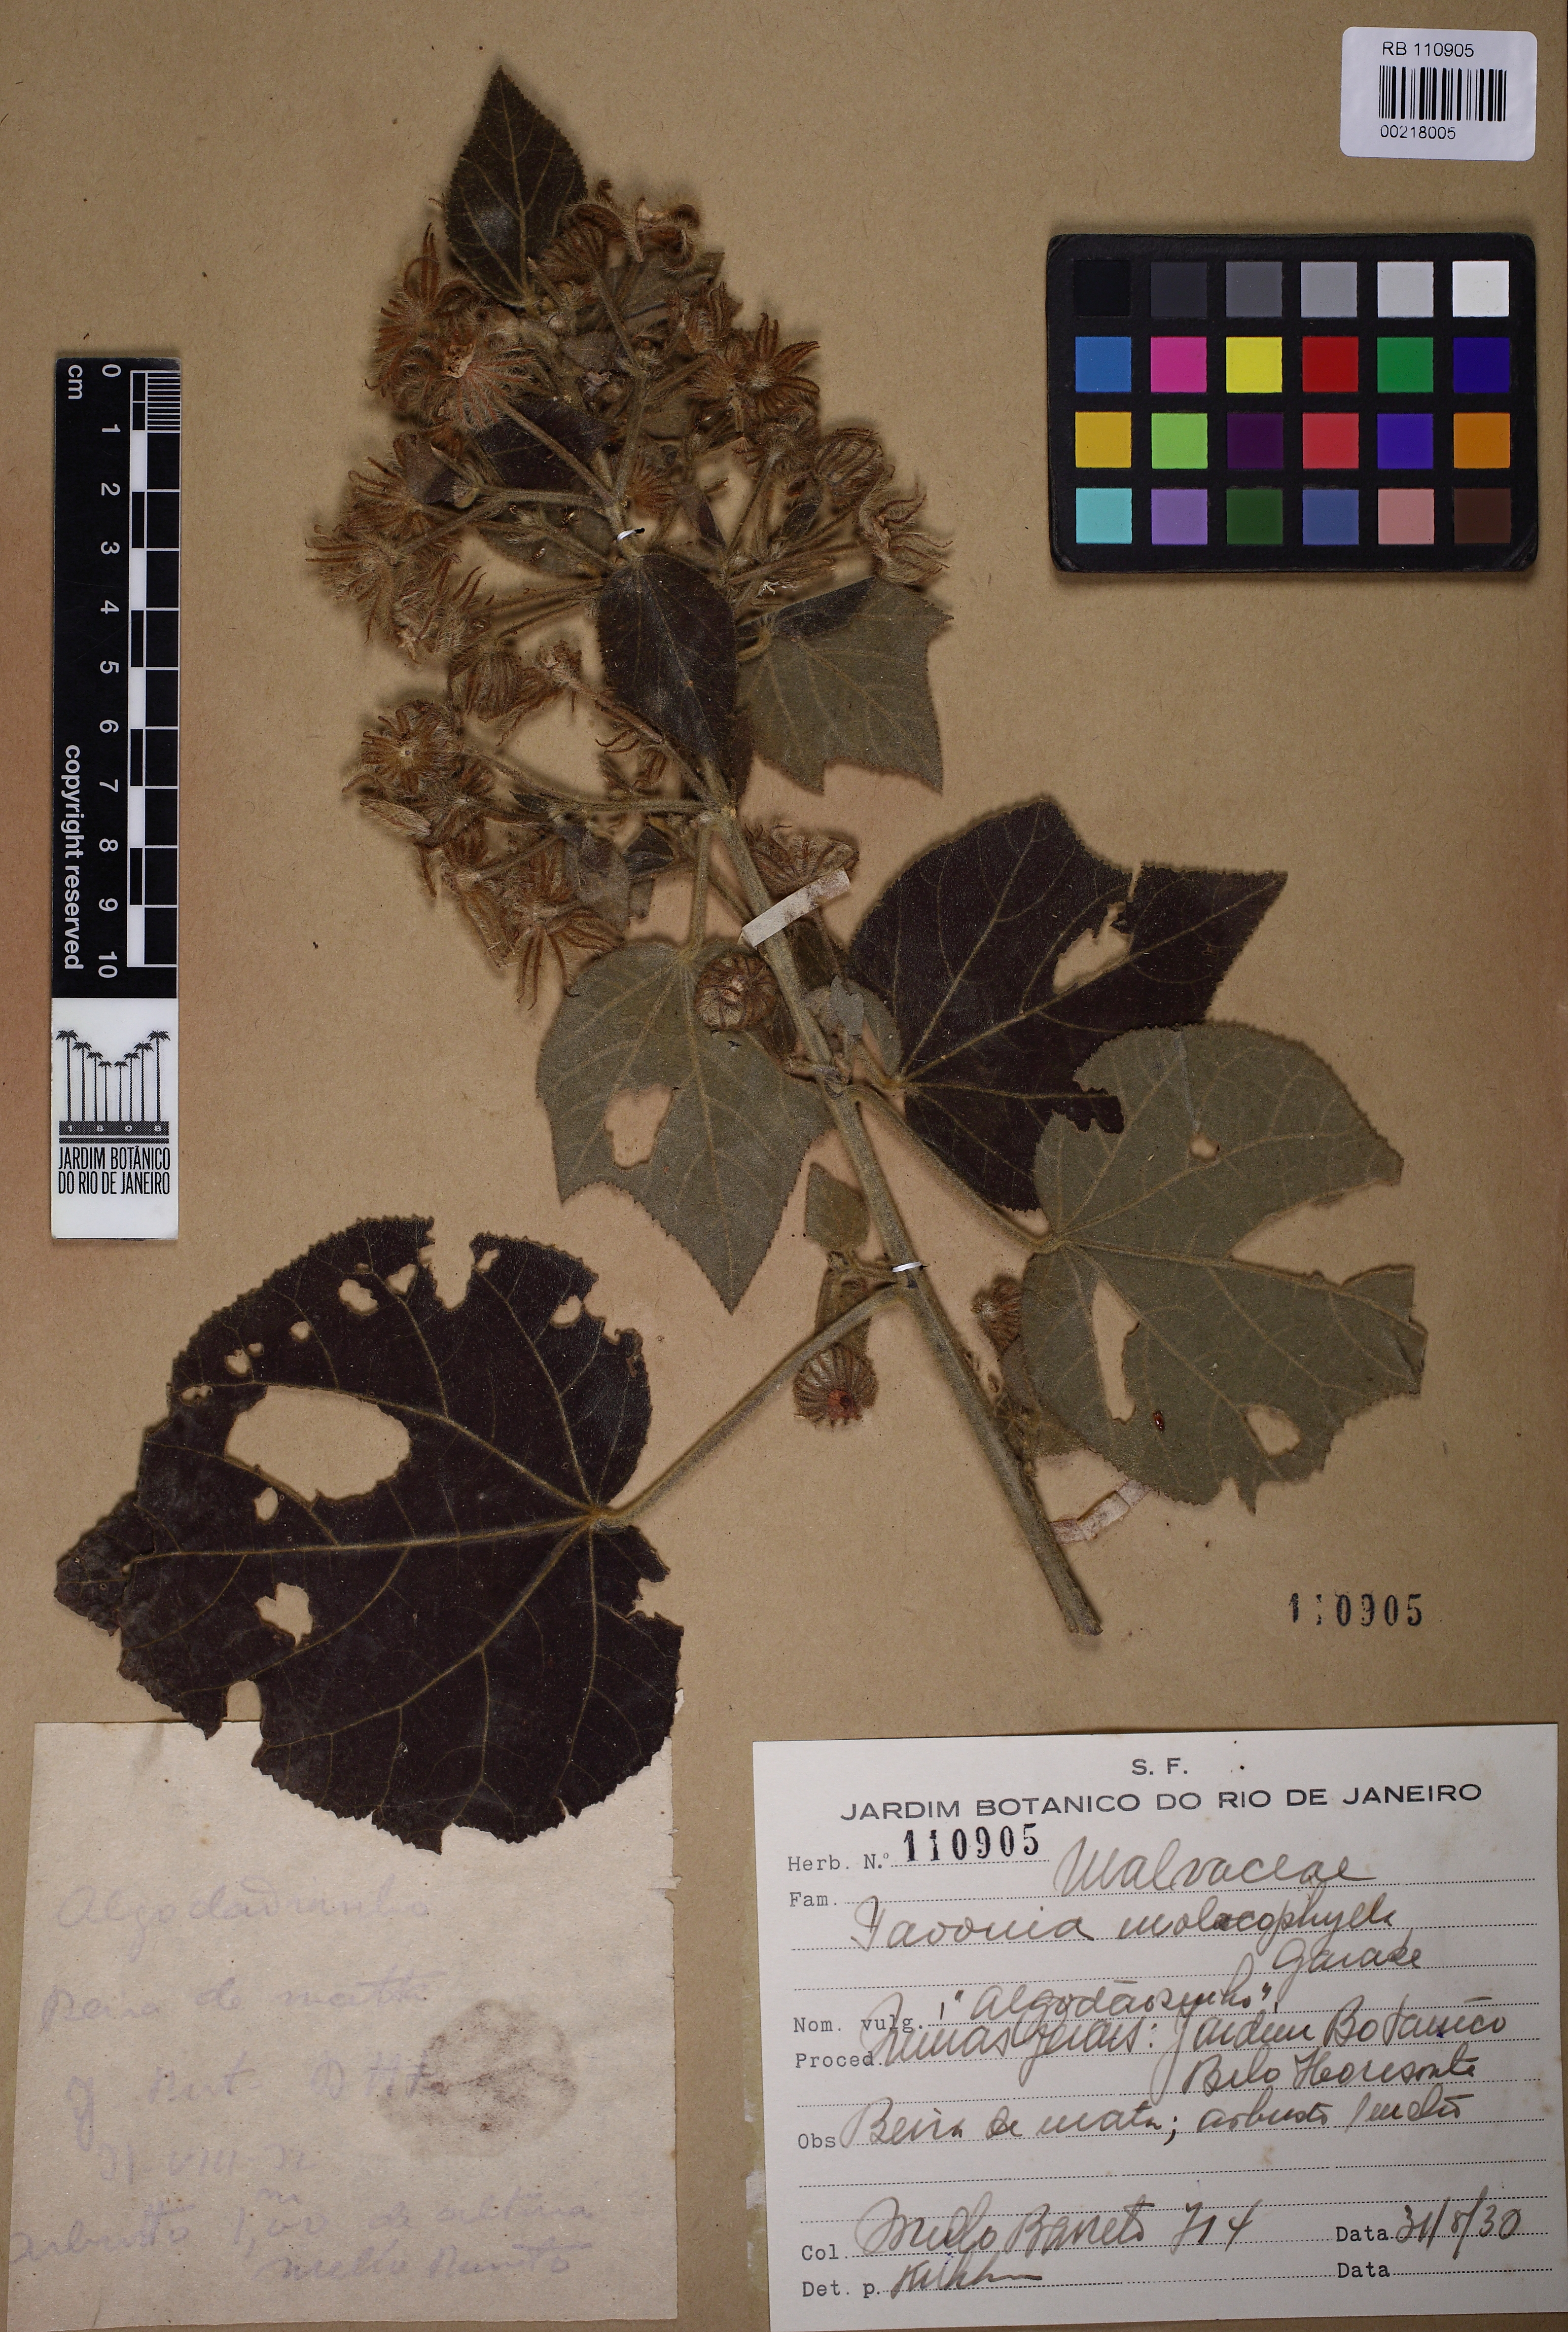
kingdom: Plantae
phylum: Tracheophyta
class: Magnoliopsida
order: Malvales
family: Malvaceae
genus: Pavonia
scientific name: Pavonia malacophylla
